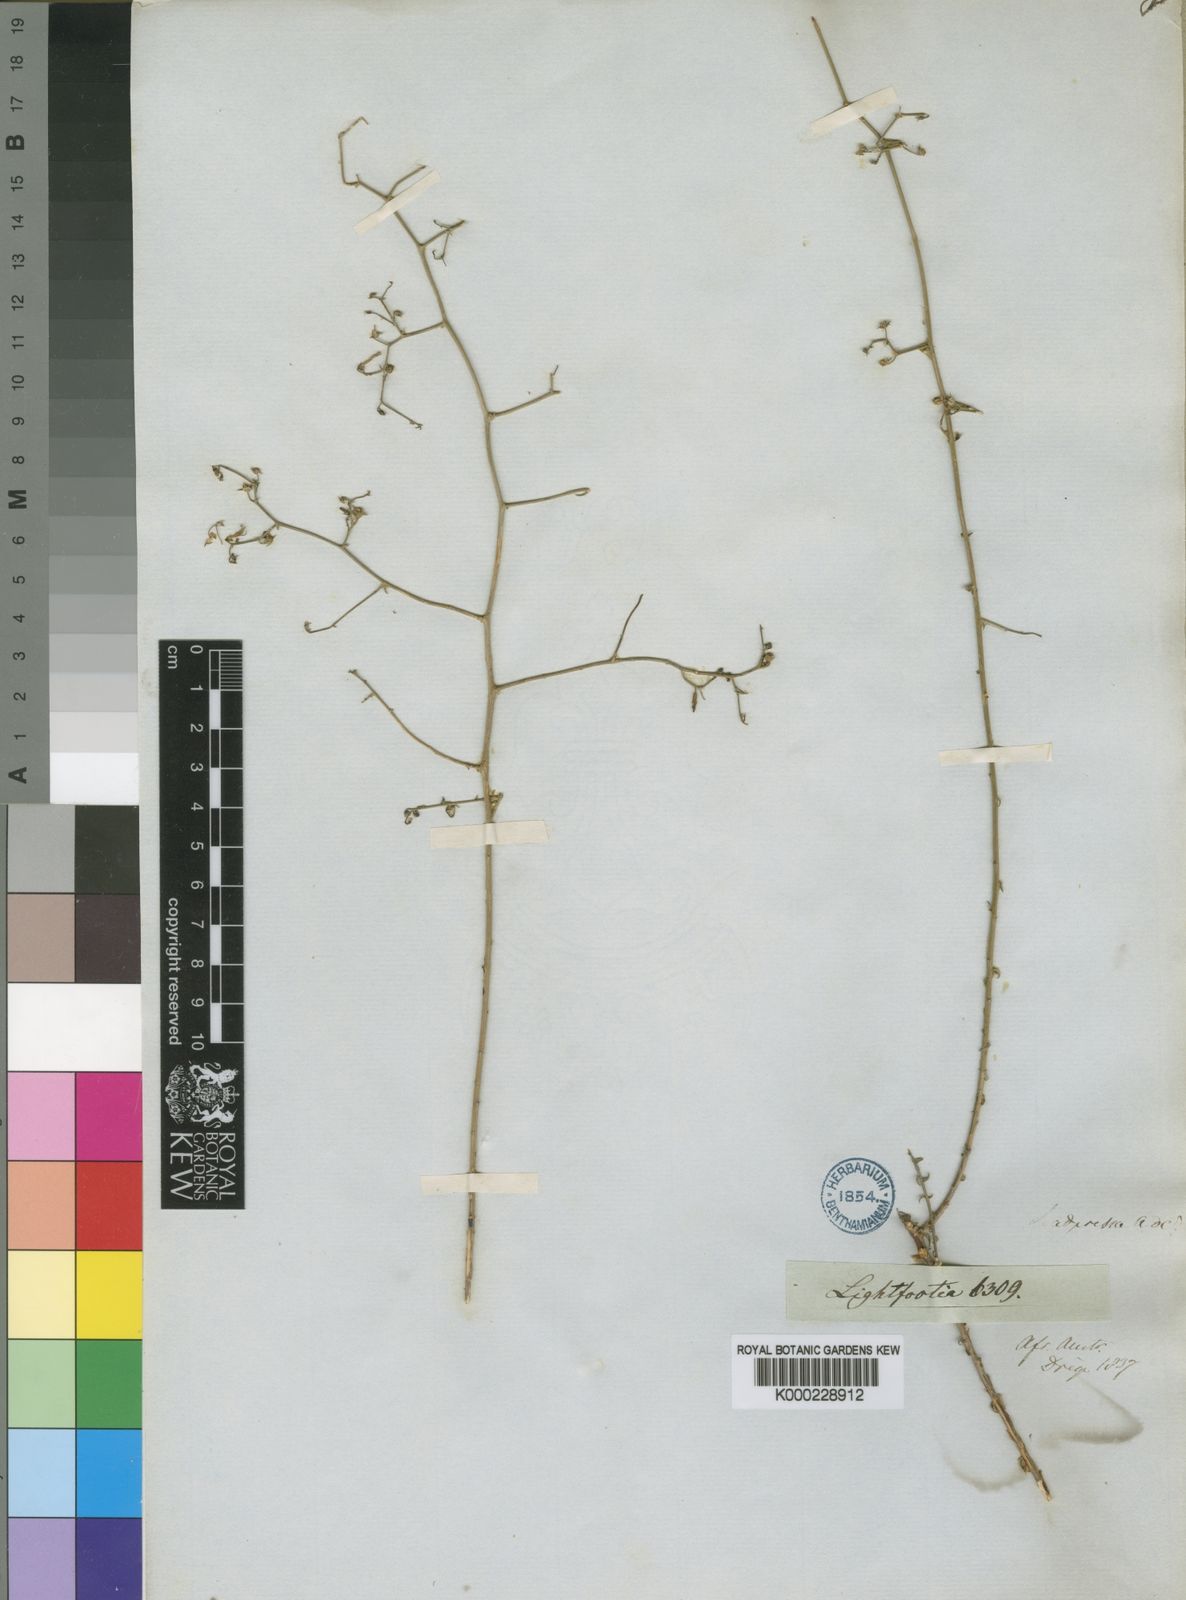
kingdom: Plantae
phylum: Tracheophyta
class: Magnoliopsida
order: Asterales
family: Campanulaceae
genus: Wahlenbergia
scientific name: Wahlenbergia adpressa
